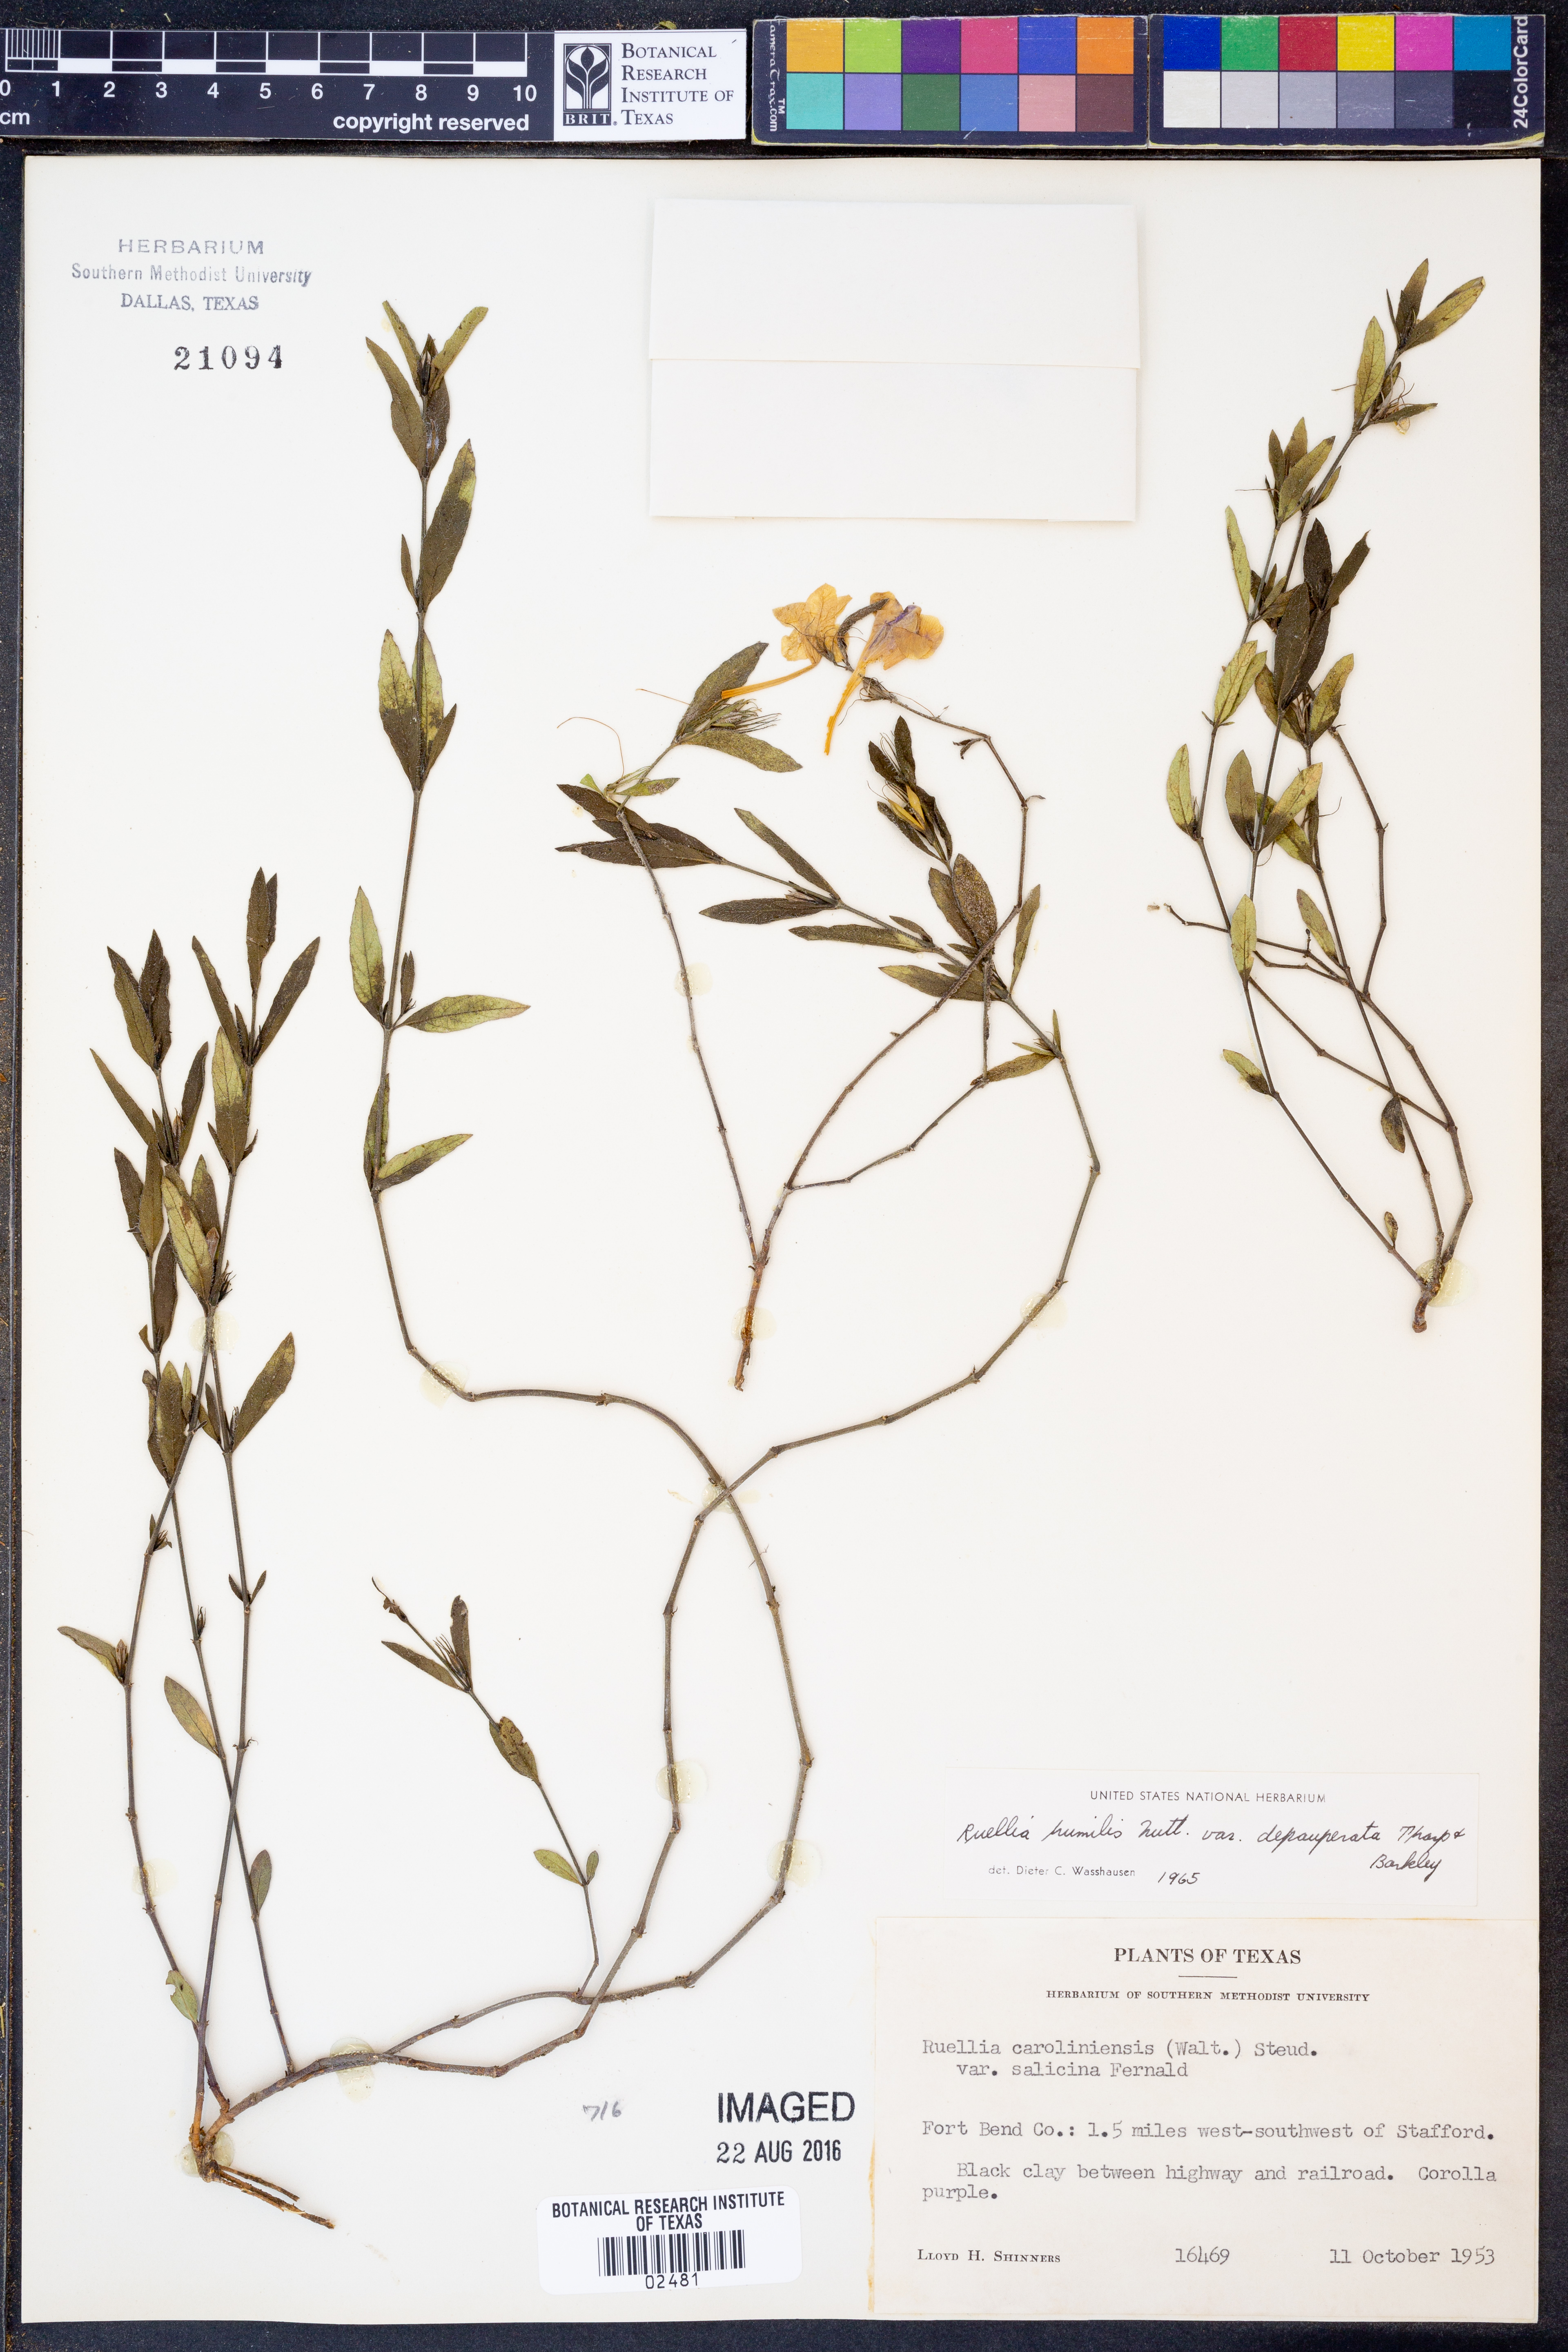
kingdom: Plantae
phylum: Tracheophyta
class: Magnoliopsida
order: Lamiales
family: Acanthaceae
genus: Ruellia
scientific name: Ruellia humilis
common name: Fringe-leaf ruellia
